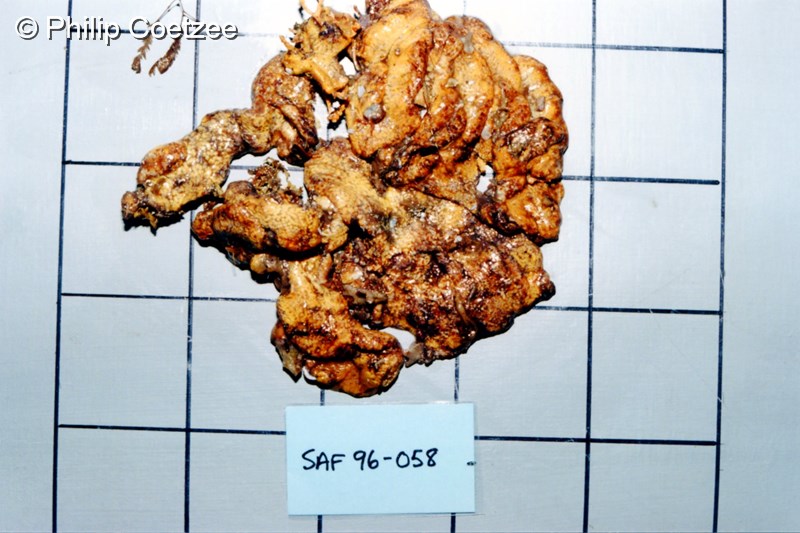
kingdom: Animalia
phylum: Chordata
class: Ascidiacea
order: Aplousobranchia
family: Diazonidae
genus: Diazona
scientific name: Diazona
